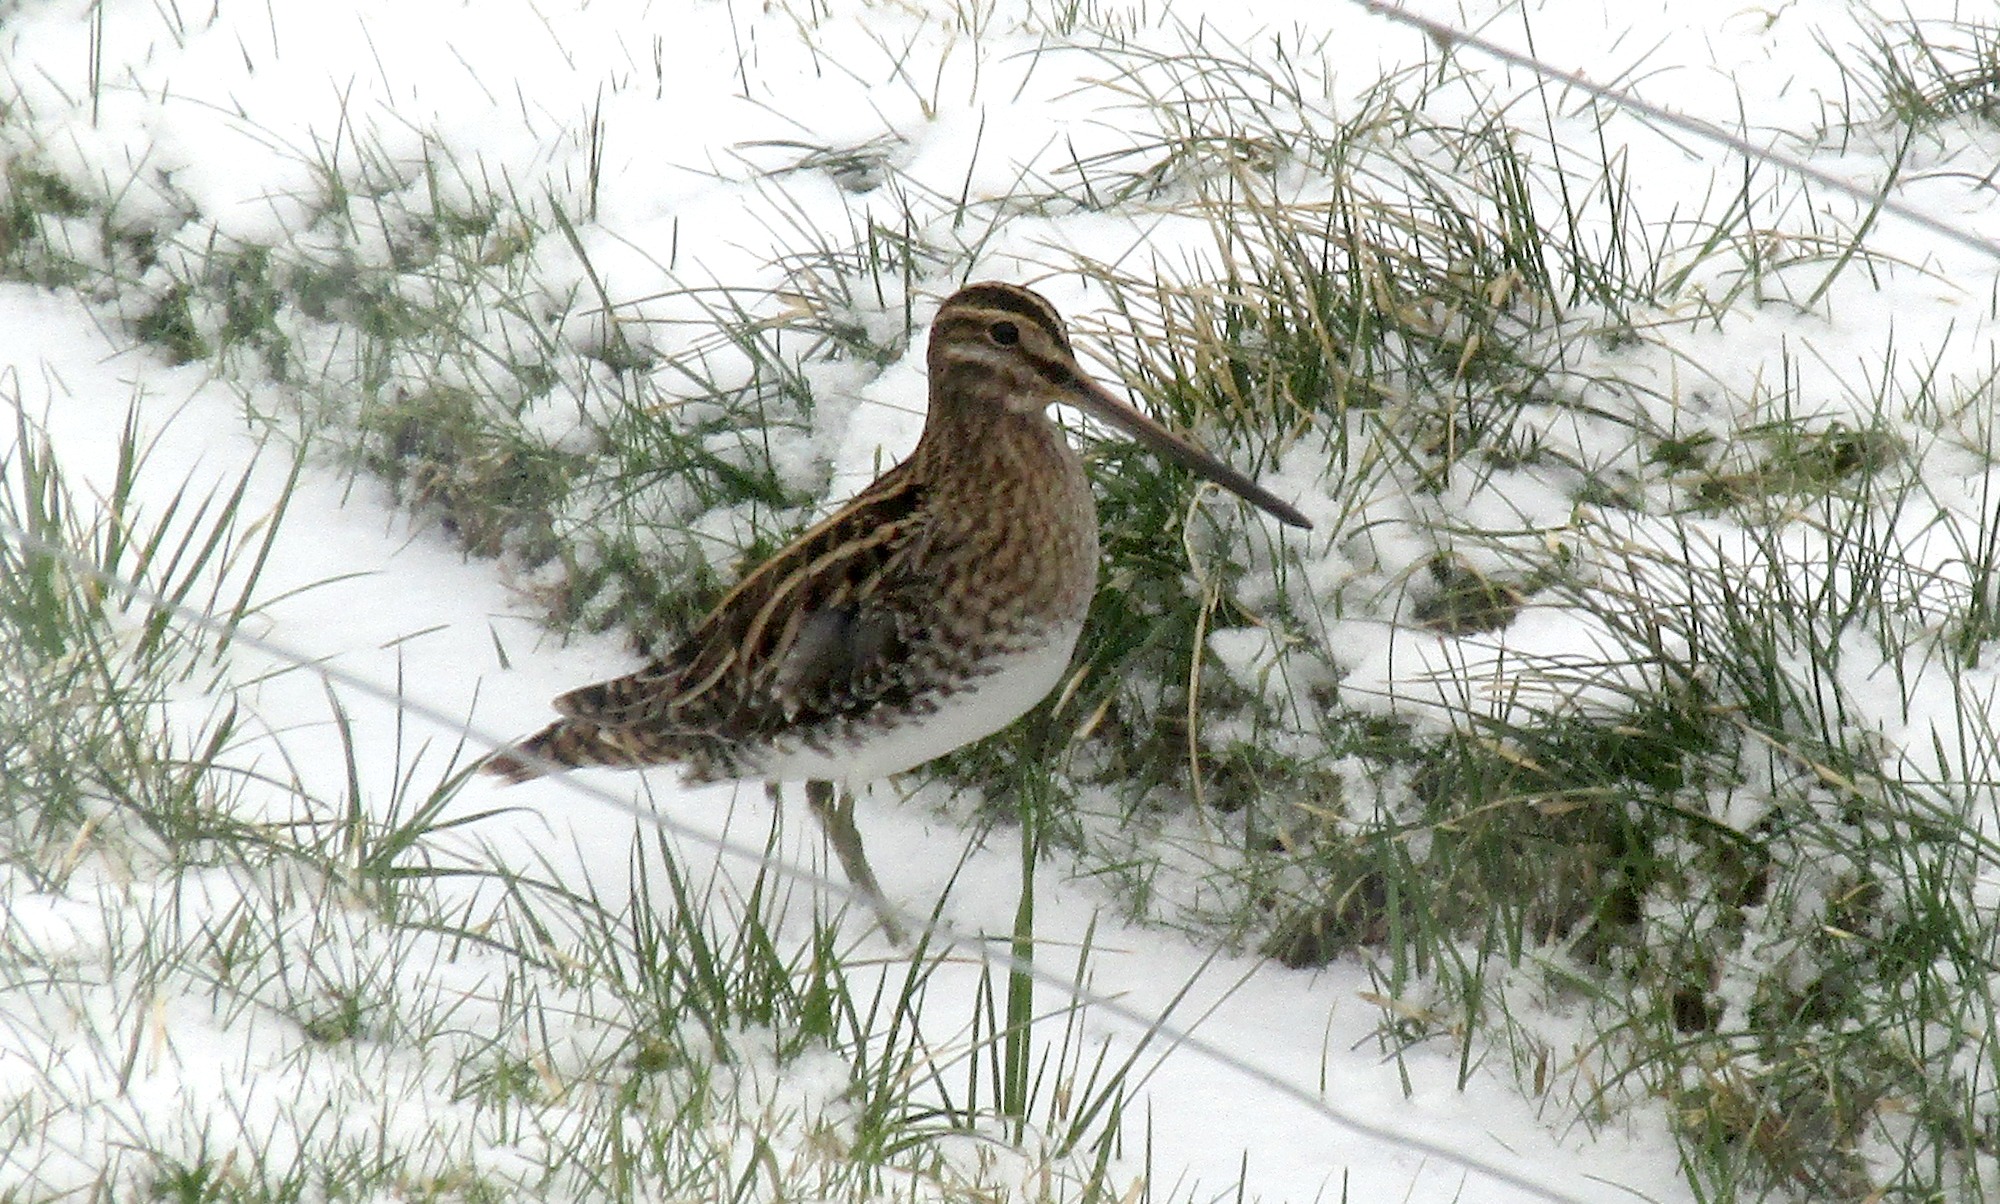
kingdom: Animalia
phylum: Chordata
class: Aves
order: Charadriiformes
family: Scolopacidae
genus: Gallinago
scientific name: Gallinago gallinago
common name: Dobbeltbekkasin
